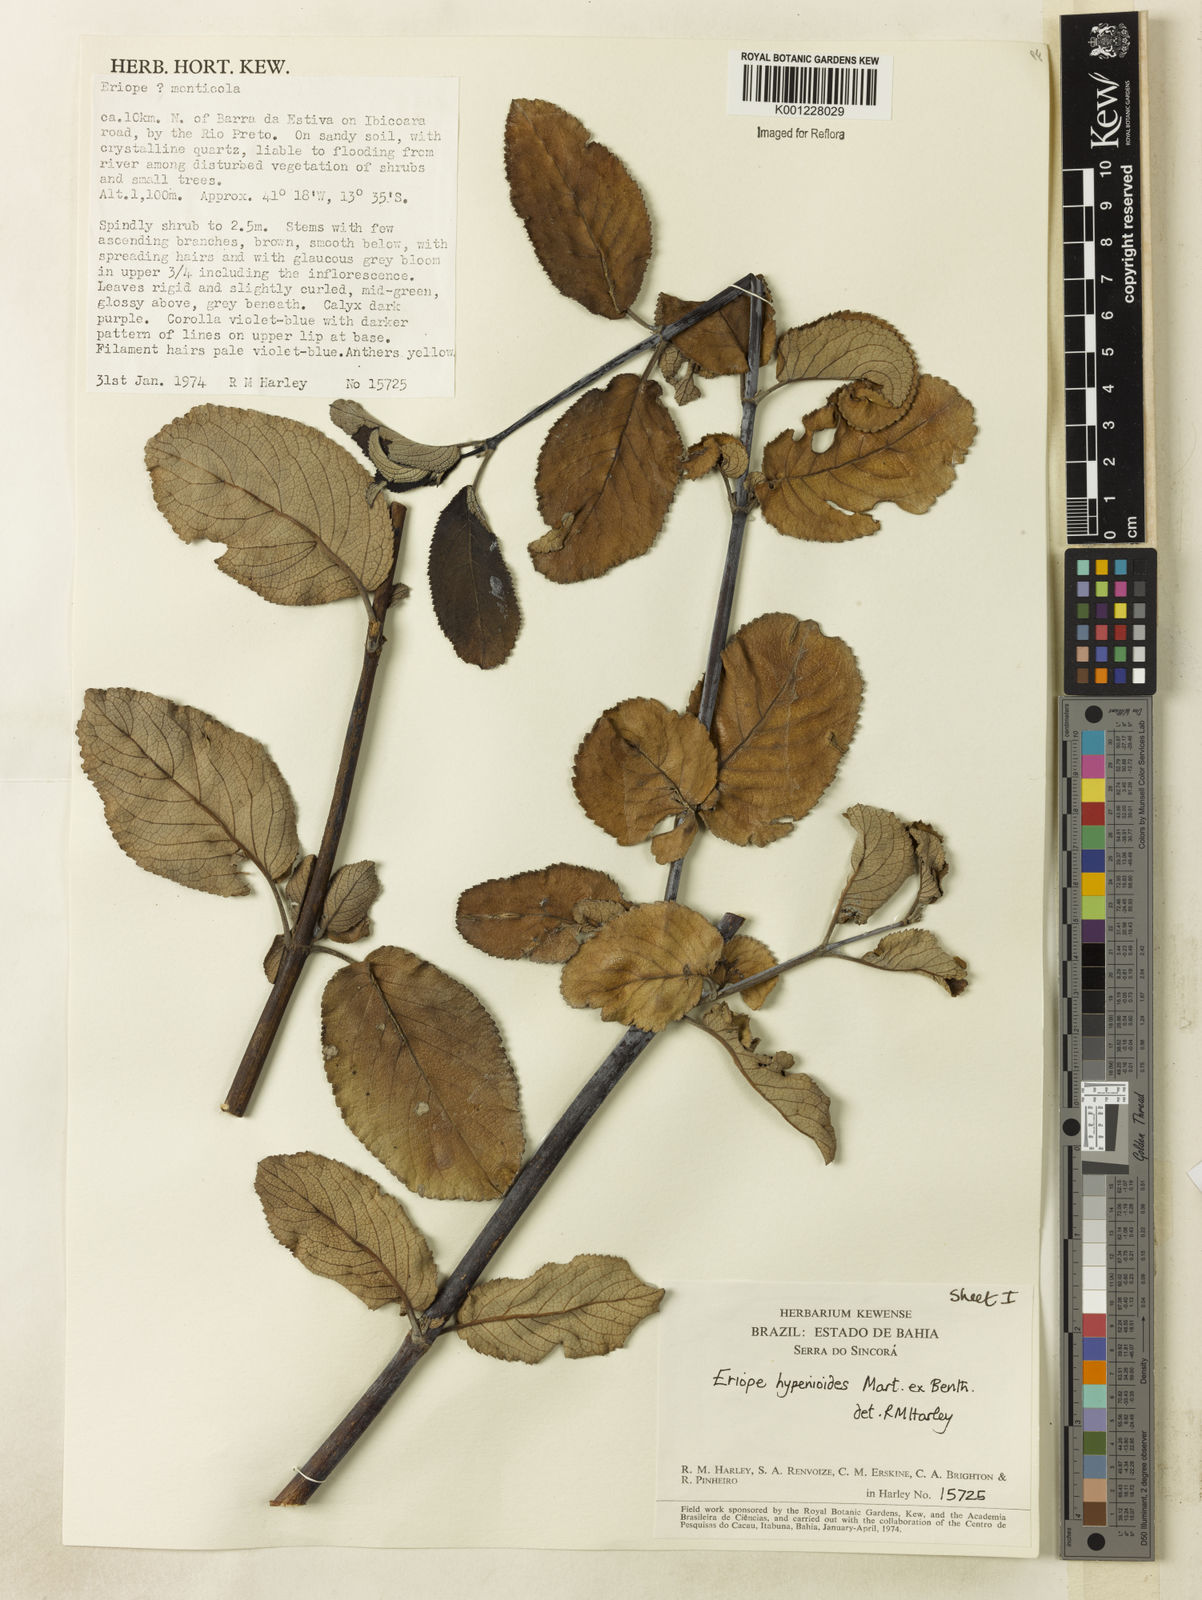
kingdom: Plantae
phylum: Tracheophyta
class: Magnoliopsida
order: Lamiales
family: Lamiaceae
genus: Eriope
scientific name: Eriope hypenioides
